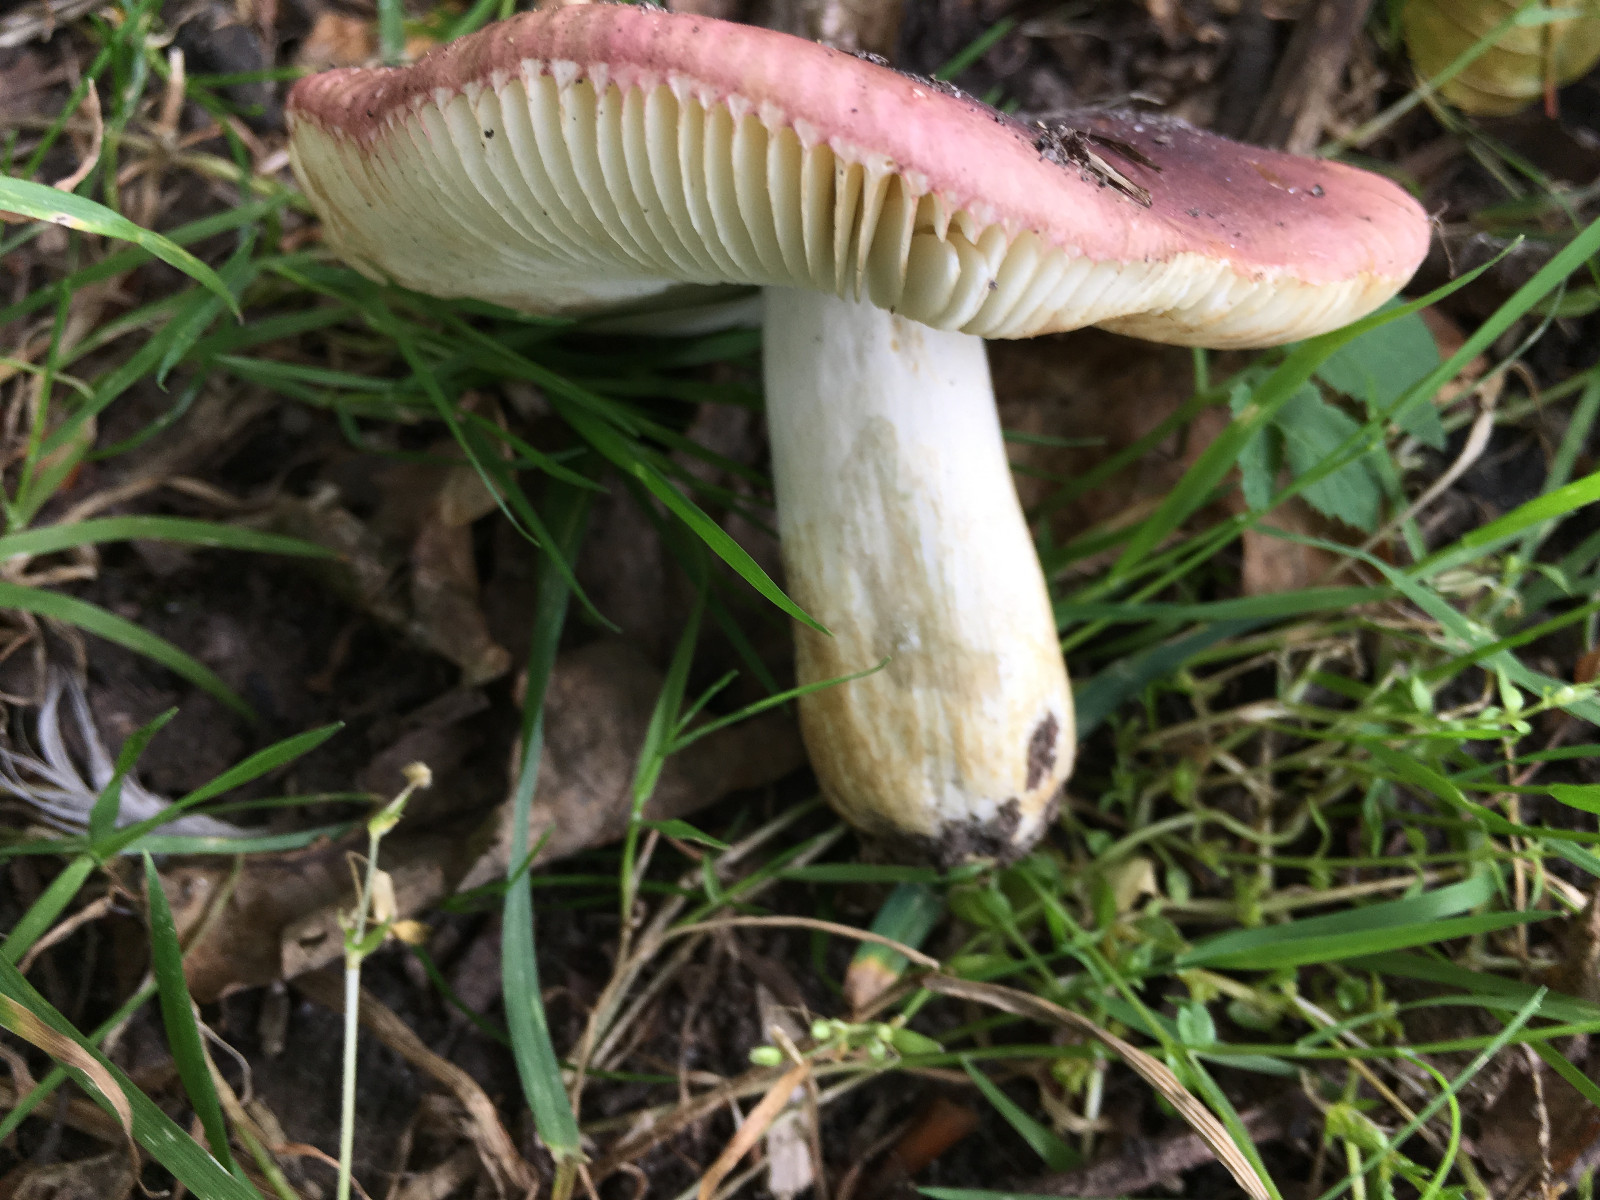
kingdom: Fungi
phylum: Basidiomycota
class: Agaricomycetes
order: Russulales
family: Russulaceae
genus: Russula
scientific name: Russula graveolens
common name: bugtet skørhat
